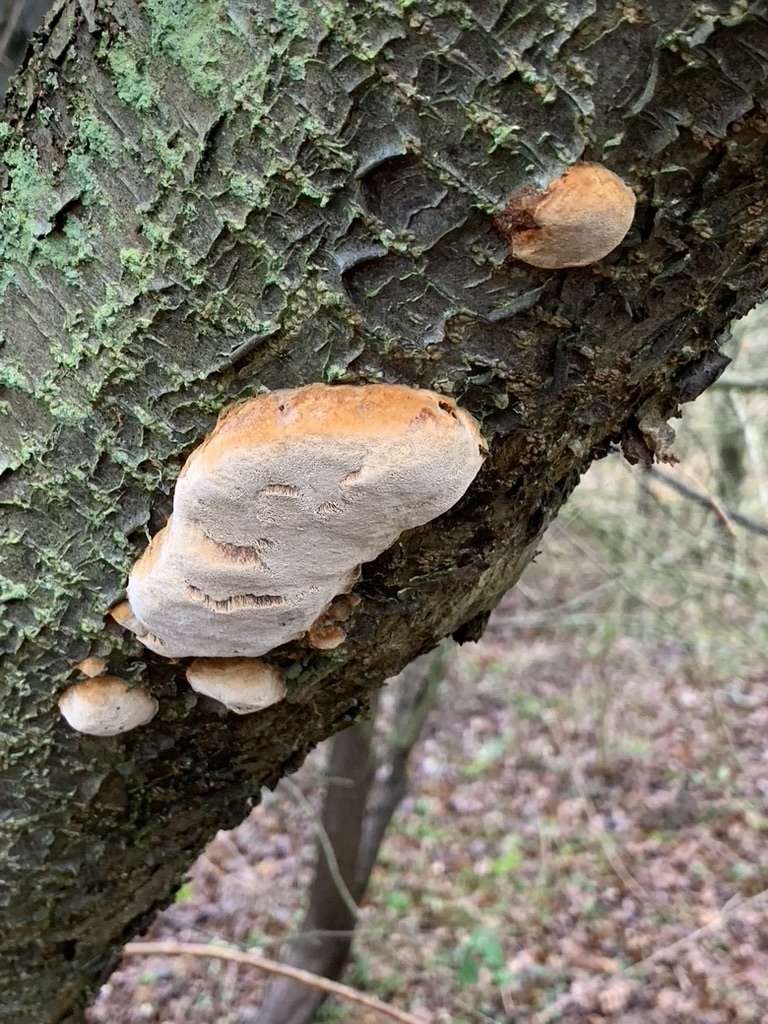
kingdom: Fungi
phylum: Basidiomycota
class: Agaricomycetes
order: Hymenochaetales
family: Hymenochaetaceae
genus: Phellinus
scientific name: Phellinus pomaceus
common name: blomme-ildporesvamp
